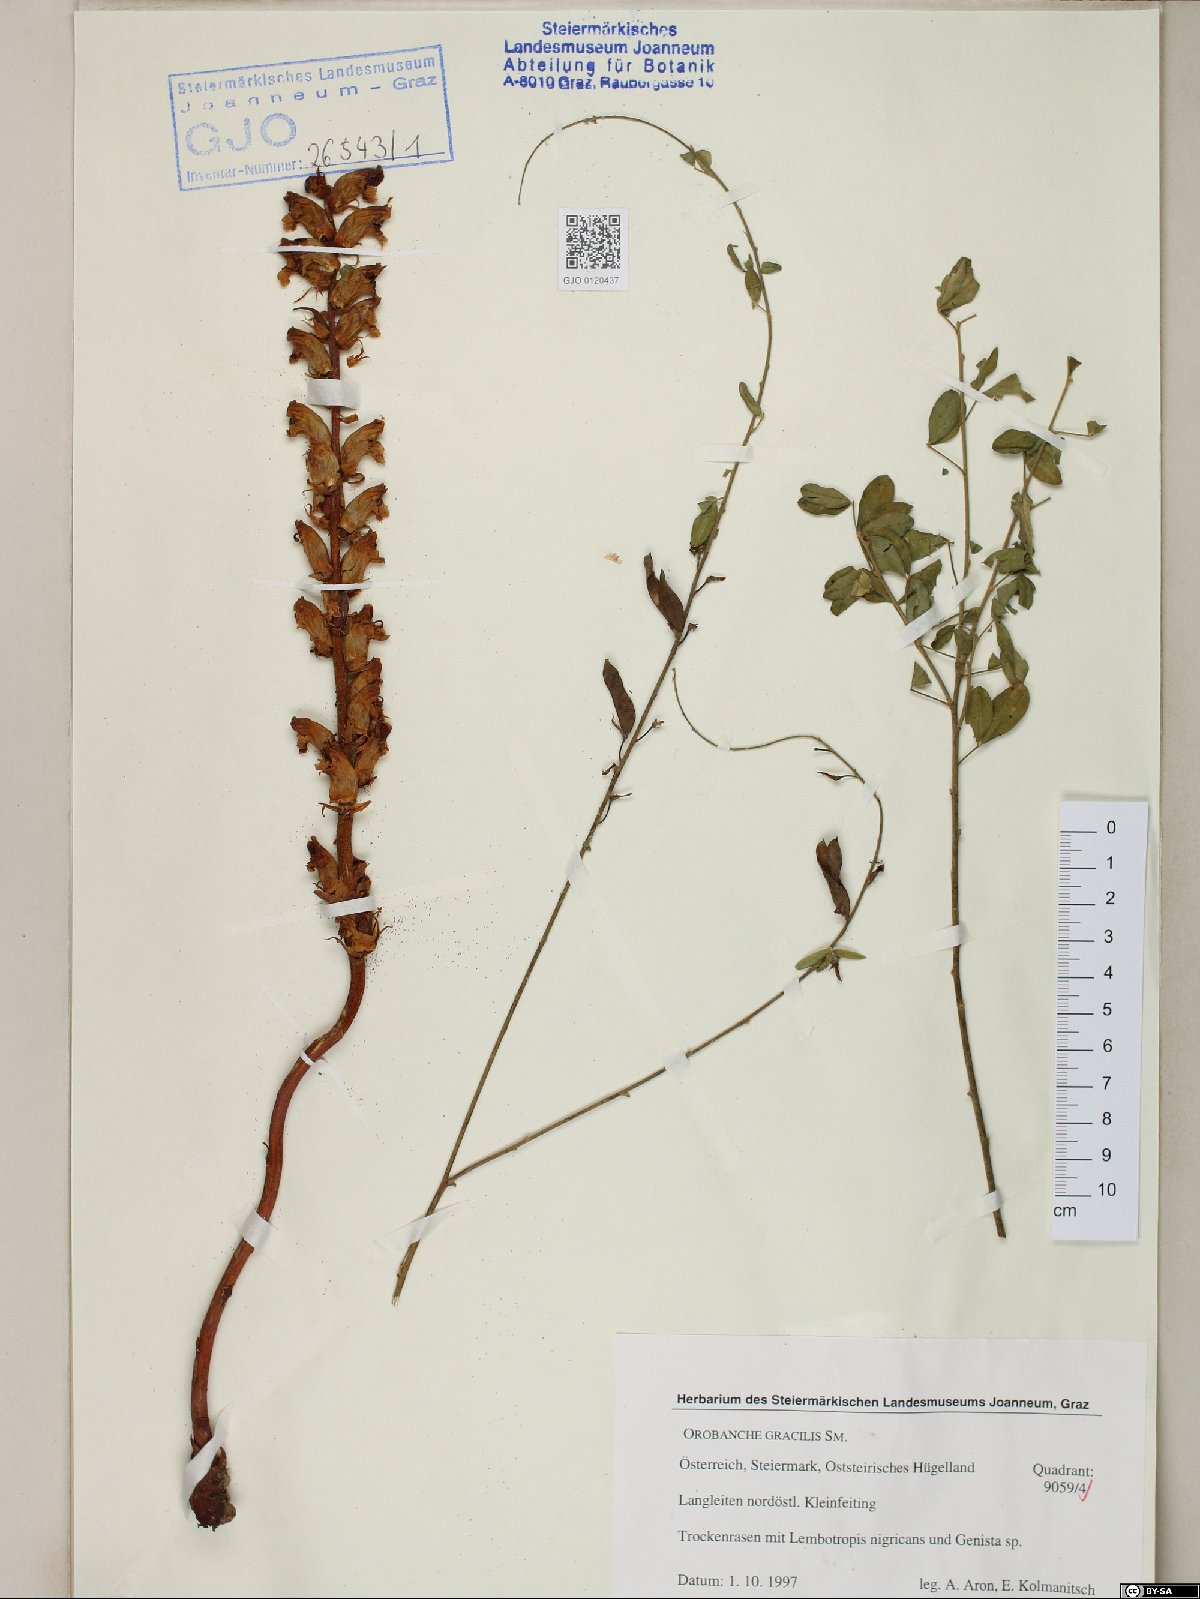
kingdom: Plantae
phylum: Tracheophyta
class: Magnoliopsida
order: Lamiales
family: Orobanchaceae
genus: Orobanche
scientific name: Orobanche gracilis
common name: Slender broomrape
